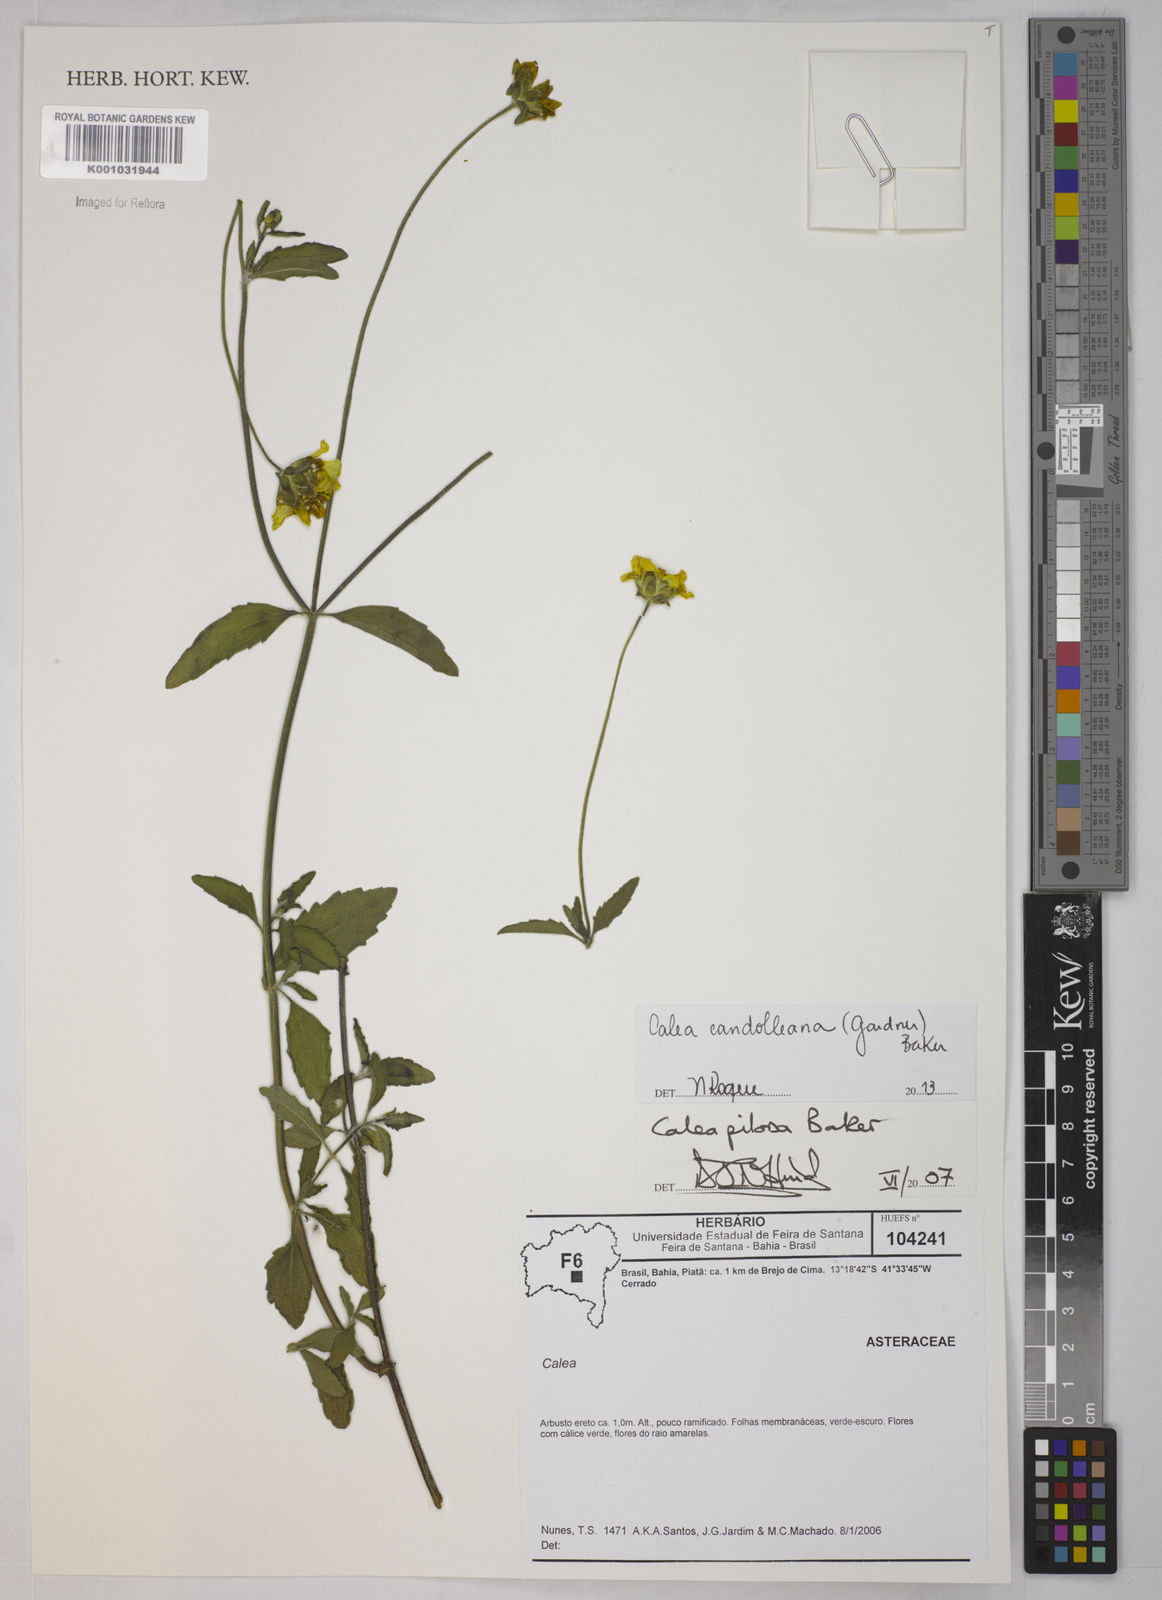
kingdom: Plantae
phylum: Tracheophyta
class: Magnoliopsida
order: Asterales
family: Asteraceae
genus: Calea
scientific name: Calea candolleana
